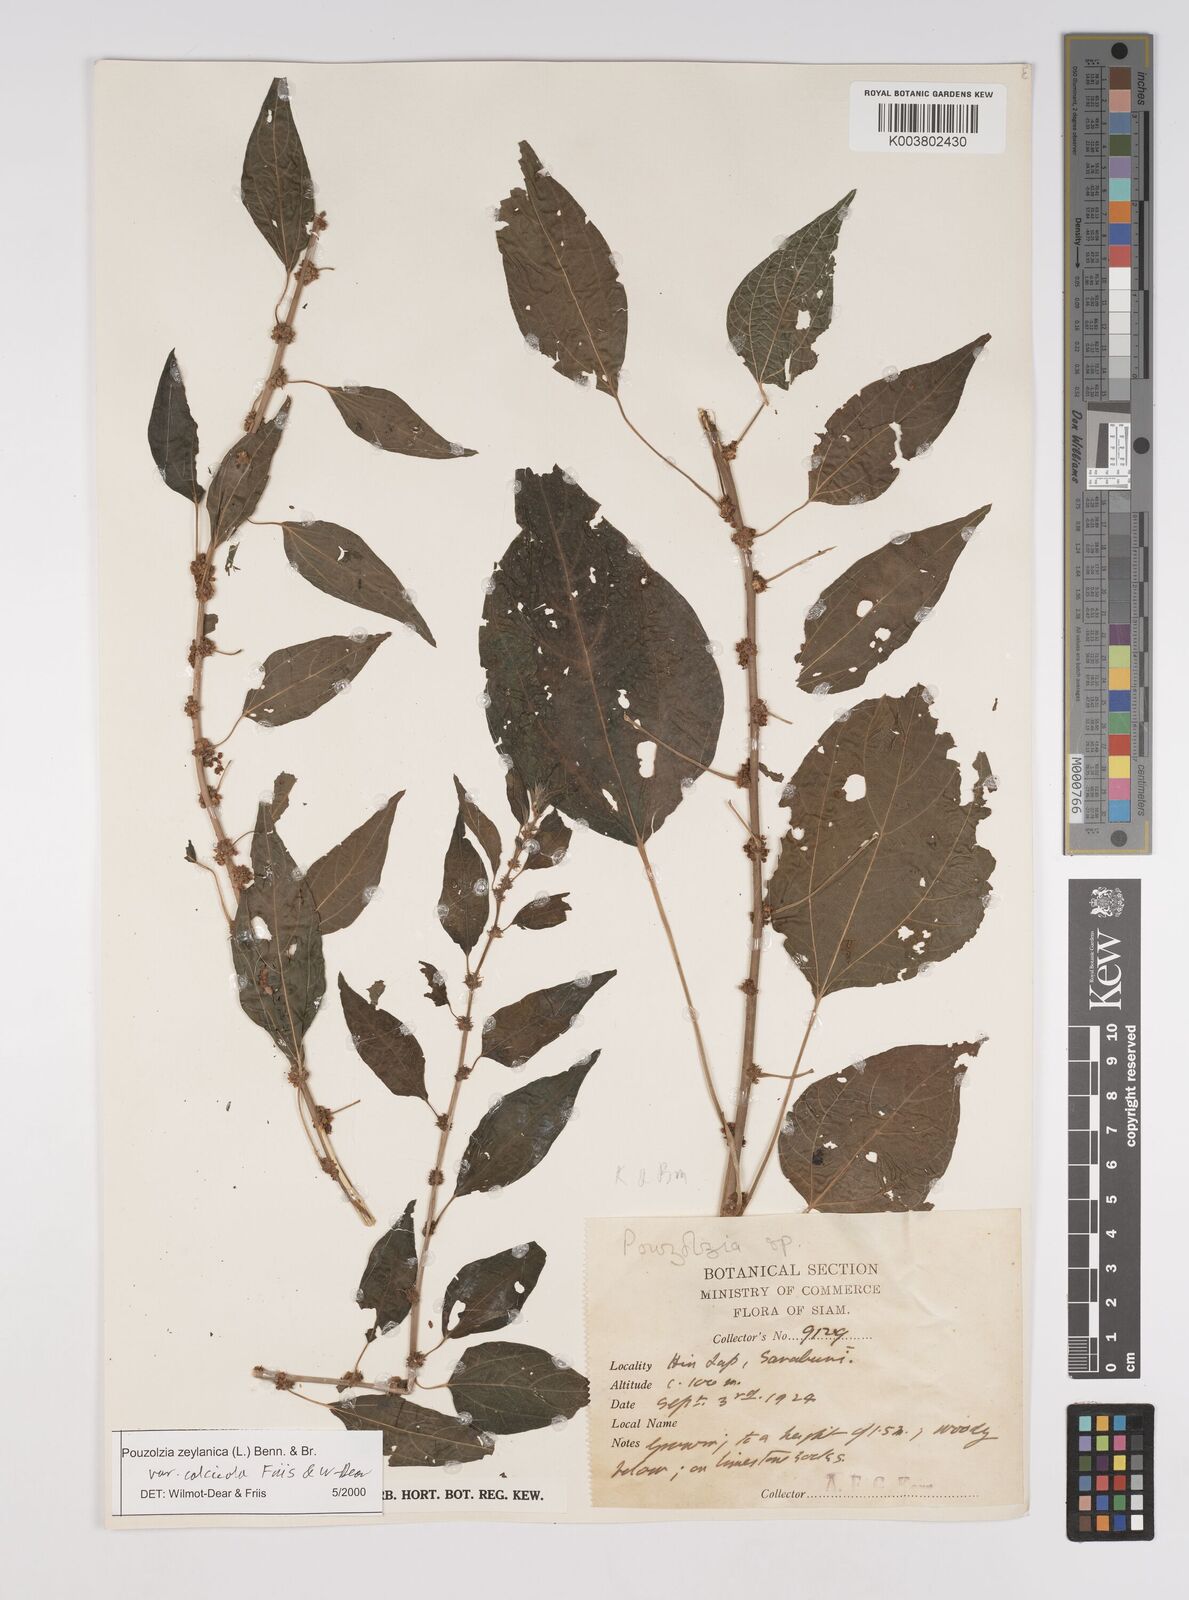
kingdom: Plantae
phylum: Tracheophyta
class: Magnoliopsida
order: Rosales
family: Urticaceae
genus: Pouzolzia
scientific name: Pouzolzia zeylanica
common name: Graceful pouzolzsbush
